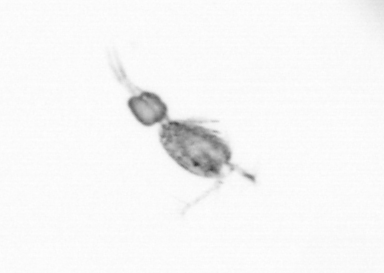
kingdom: Animalia
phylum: Arthropoda
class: Copepoda
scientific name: Copepoda
